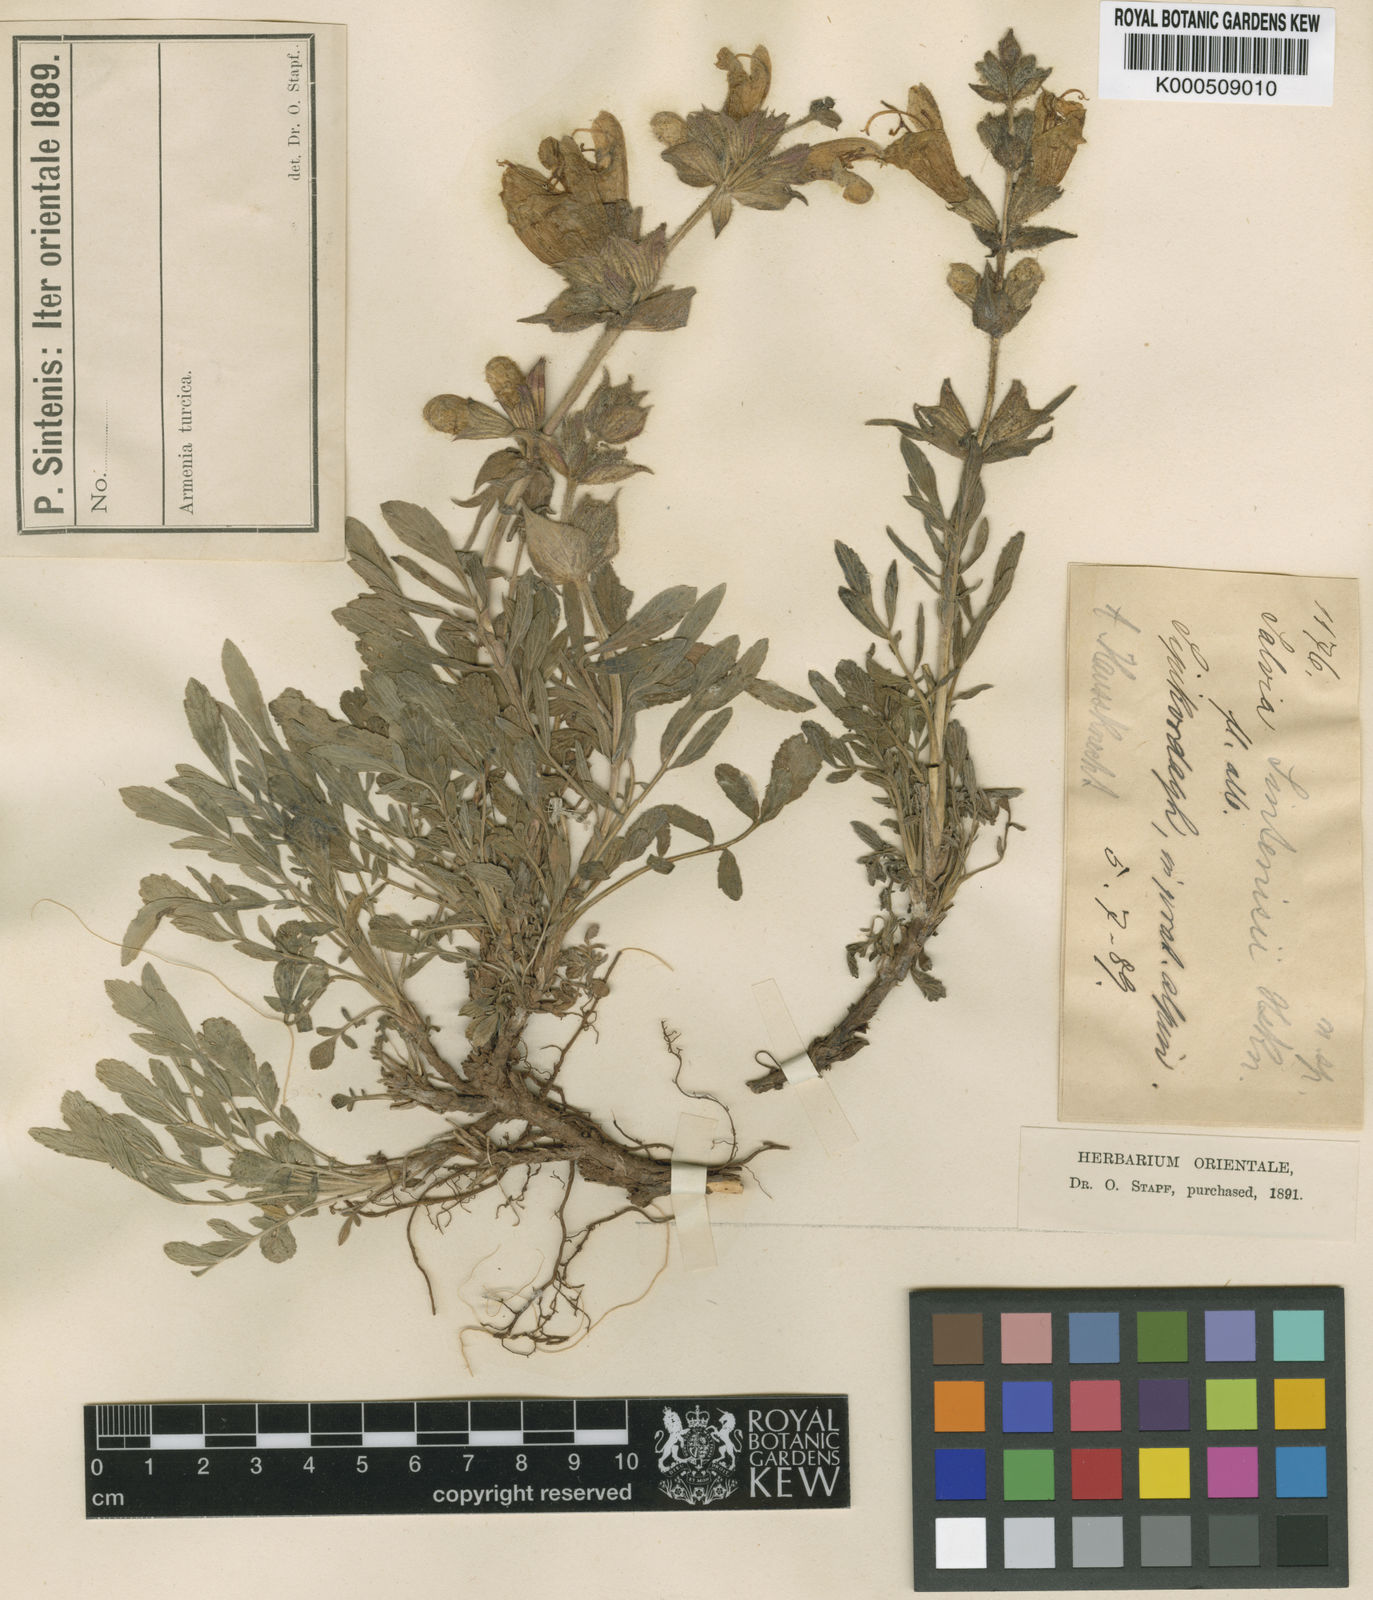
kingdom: Plantae
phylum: Tracheophyta
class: Magnoliopsida
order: Lamiales
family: Lamiaceae
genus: Salvia
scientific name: Salvia pachystachya
